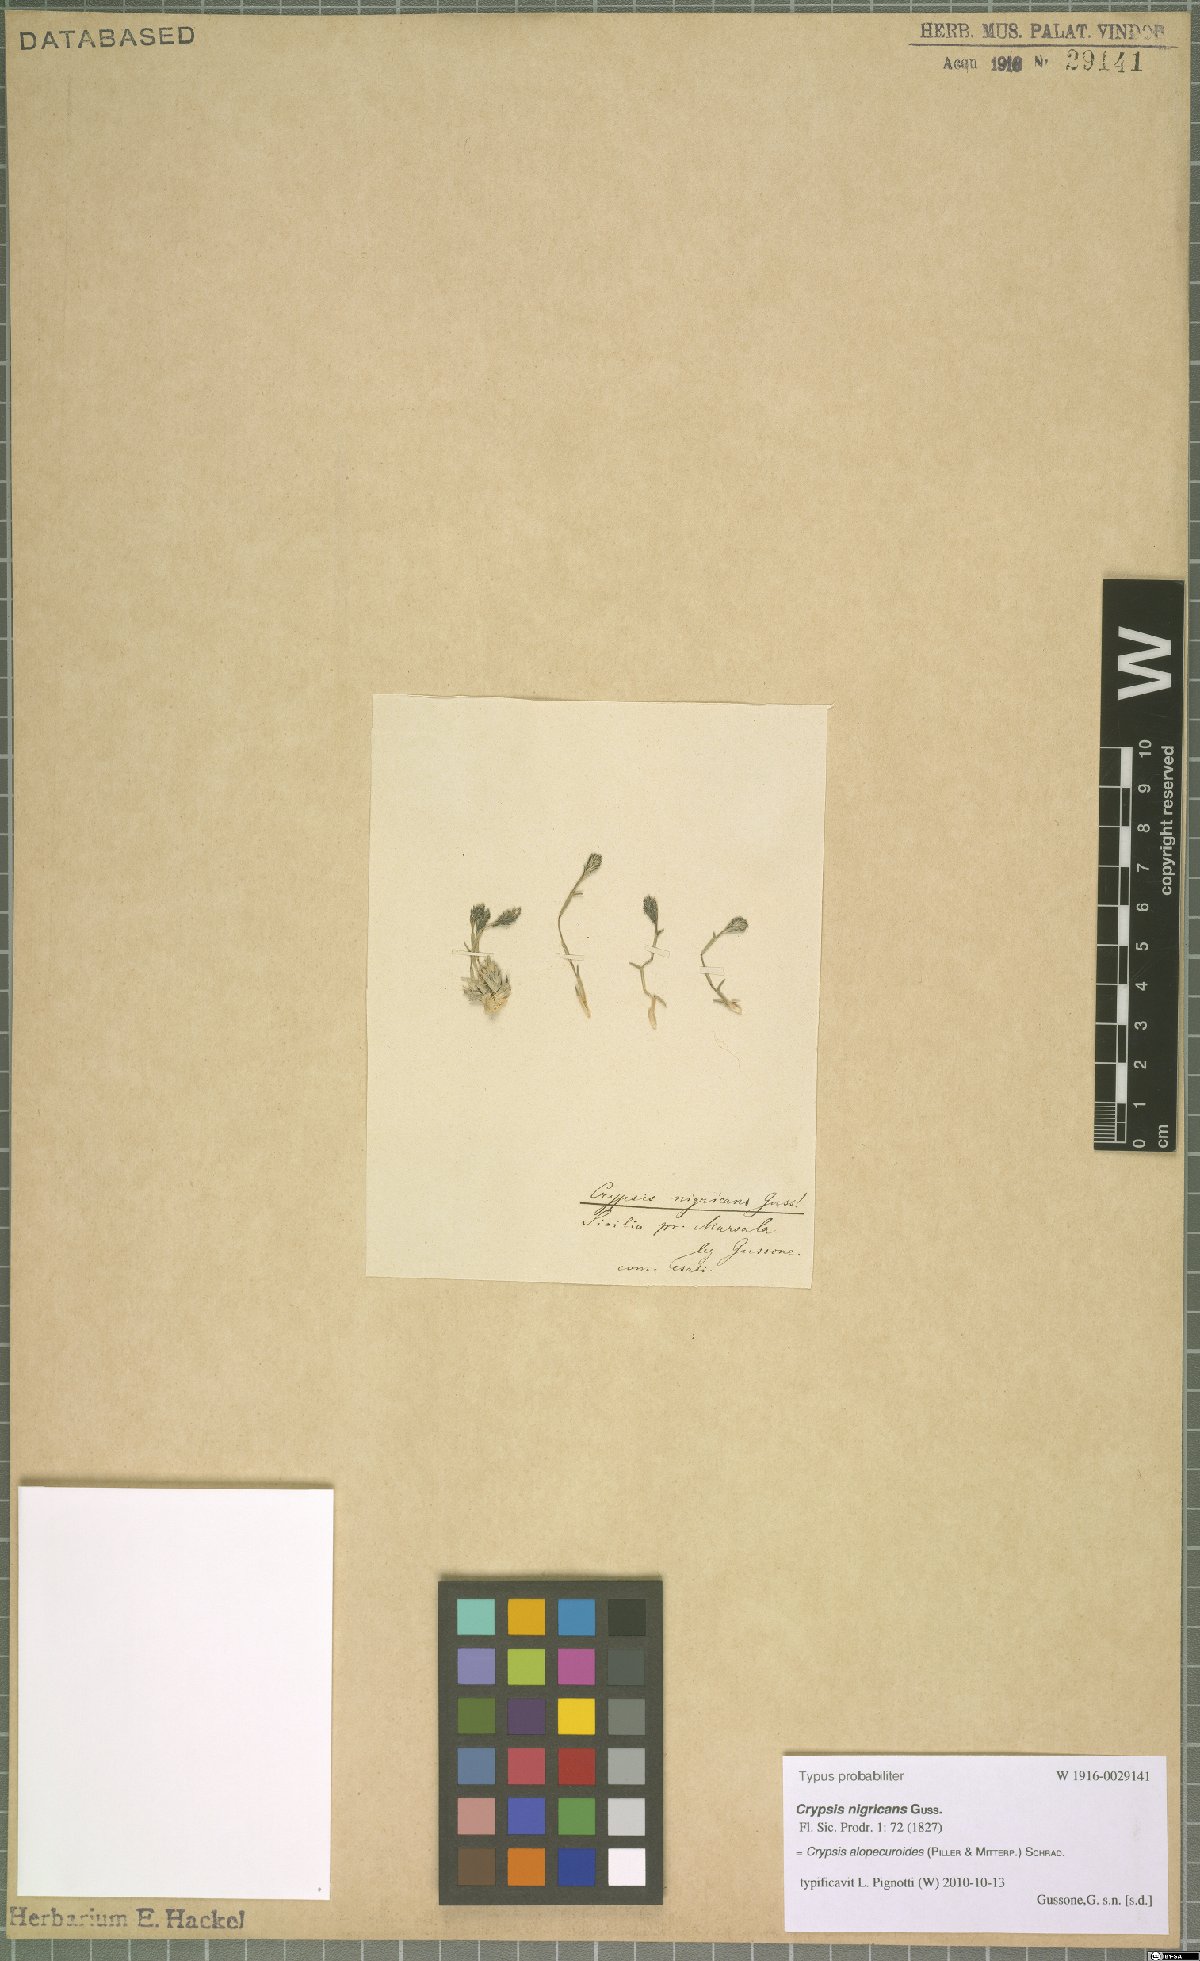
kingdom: Plantae
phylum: Tracheophyta
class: Liliopsida
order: Poales
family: Poaceae
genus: Sporobolus
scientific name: Sporobolus alopecuroides
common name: Foxtail pricklegrass
